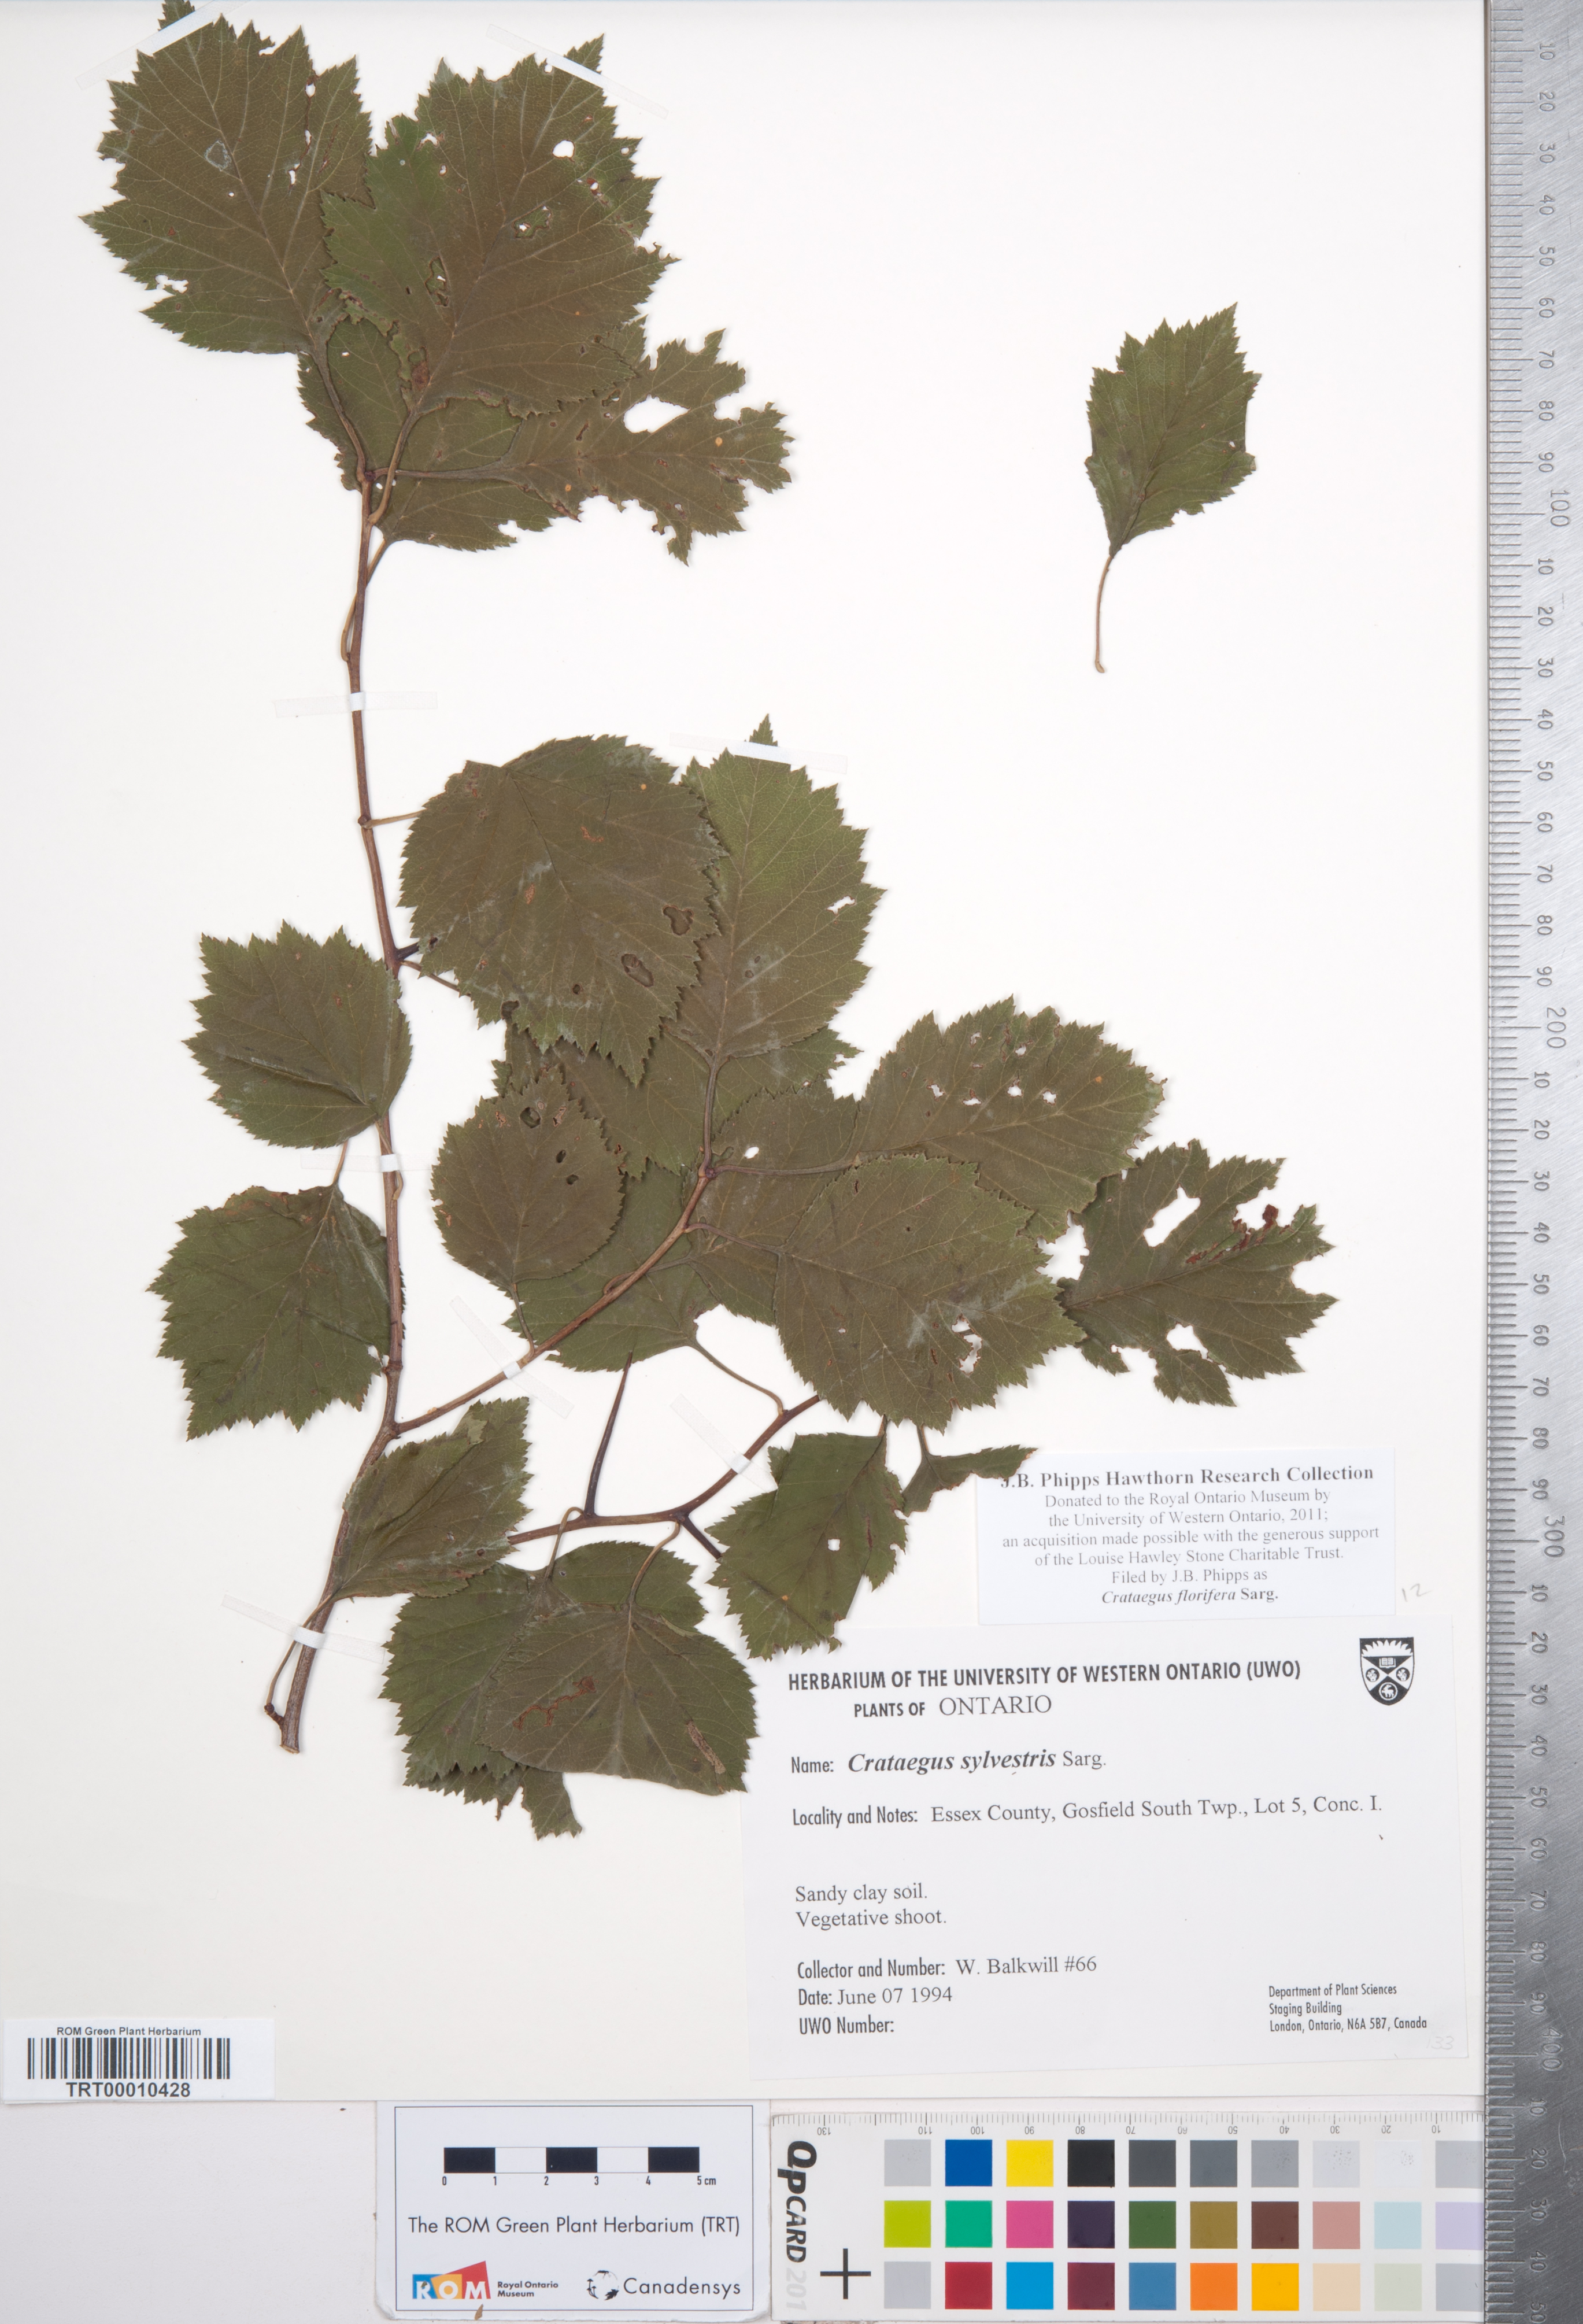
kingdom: Plantae
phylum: Tracheophyta
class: Magnoliopsida
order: Rosales
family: Rosaceae
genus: Crataegus
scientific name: Crataegus florifera
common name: Woodland hawthorn
